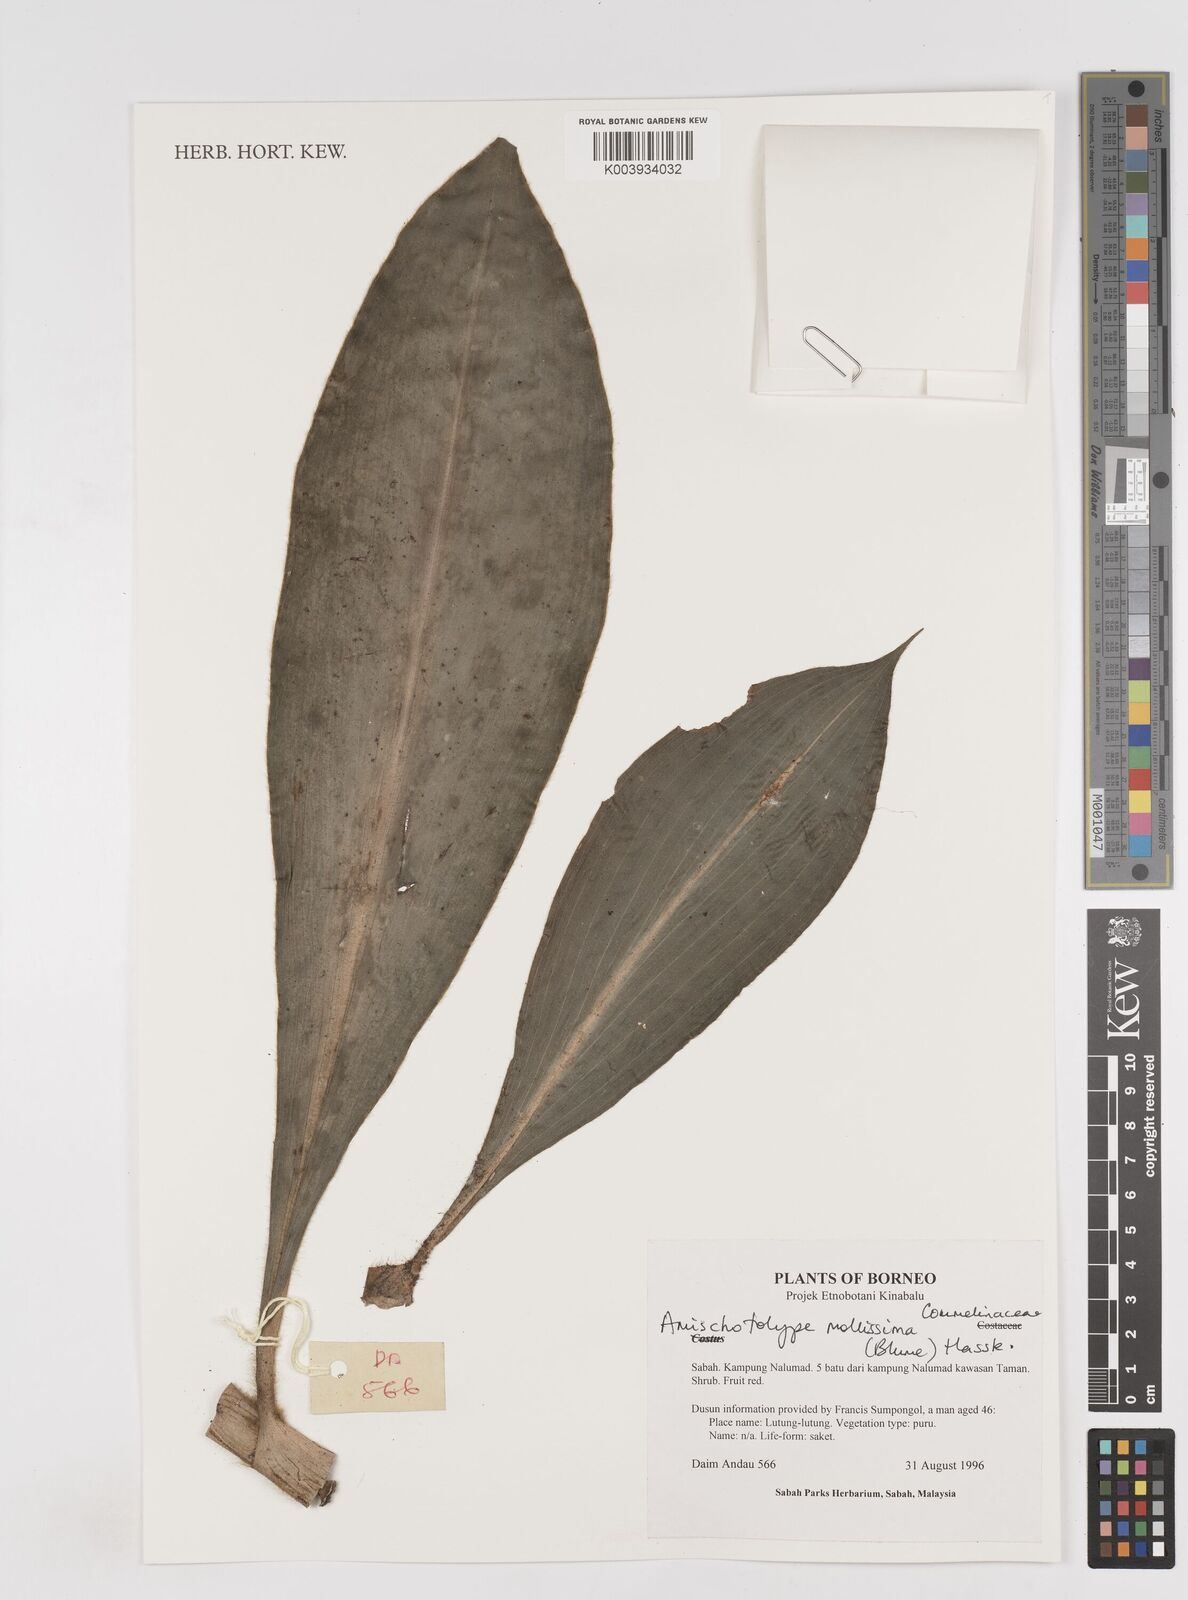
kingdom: Plantae
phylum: Tracheophyta
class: Liliopsida
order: Commelinales
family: Commelinaceae
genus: Amischotolype
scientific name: Amischotolype mollissima
